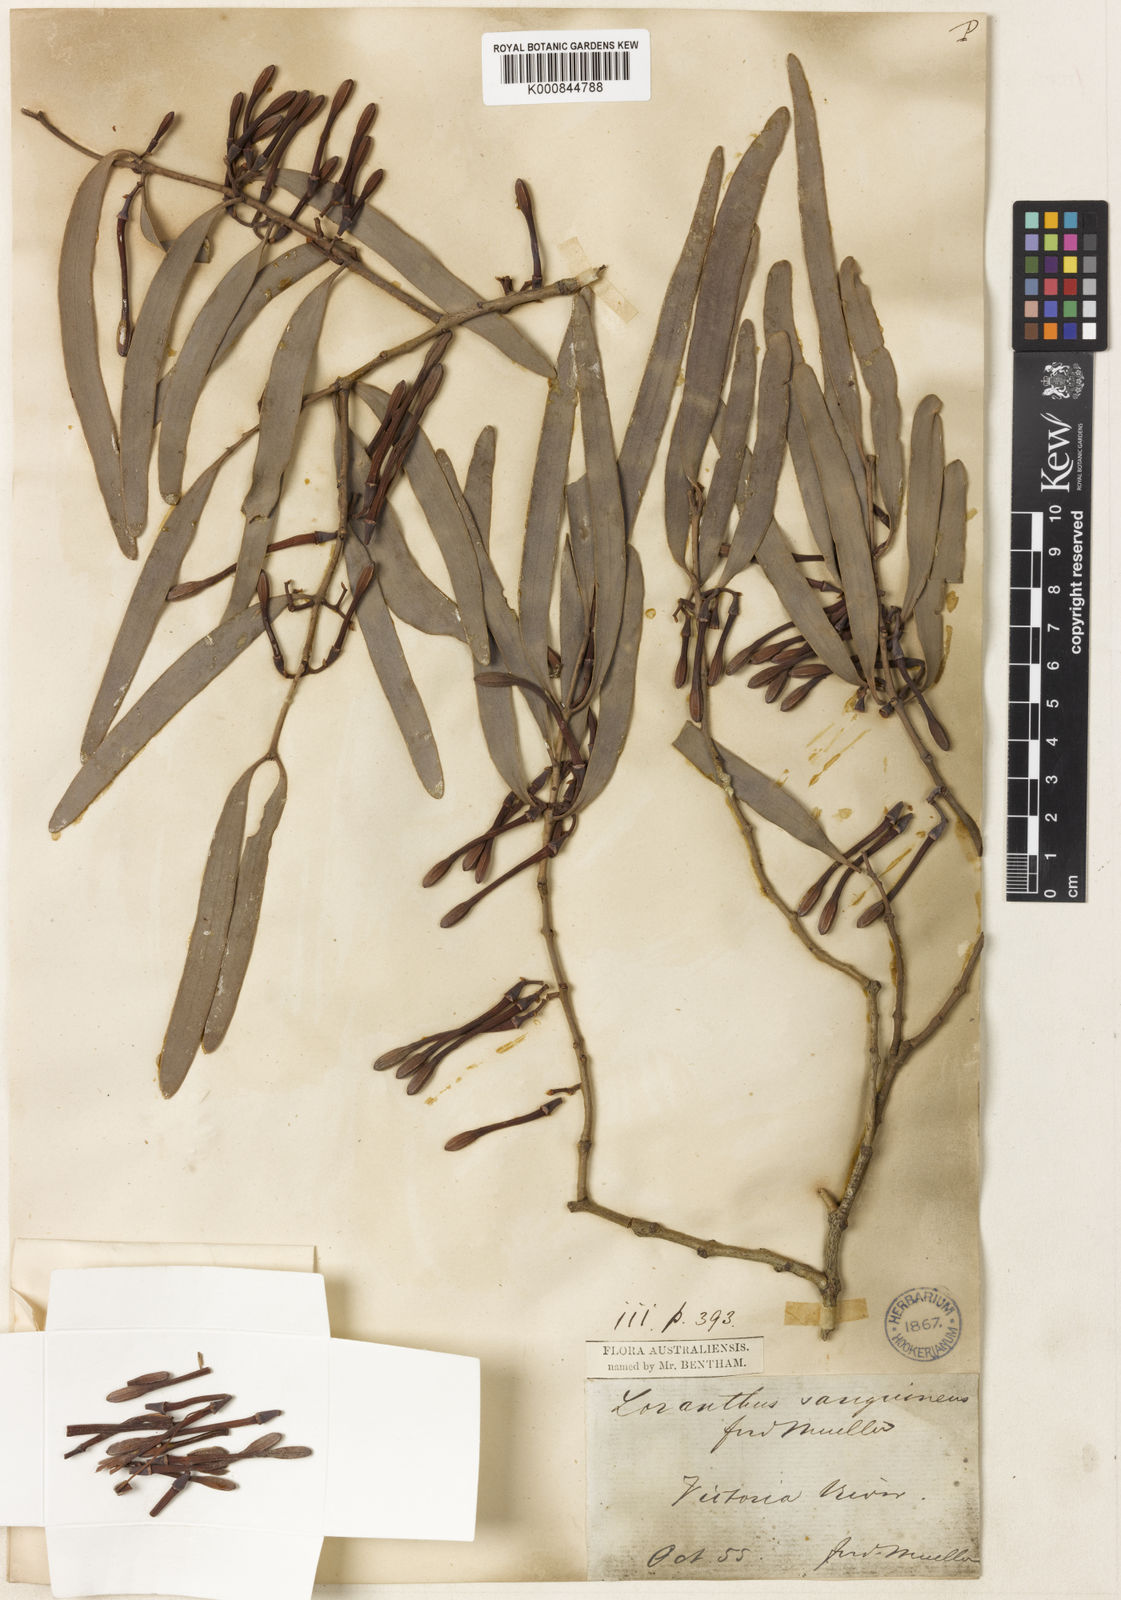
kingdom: Plantae
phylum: Tracheophyta
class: Magnoliopsida
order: Santalales
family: Loranthaceae
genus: Amyema
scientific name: Amyema
